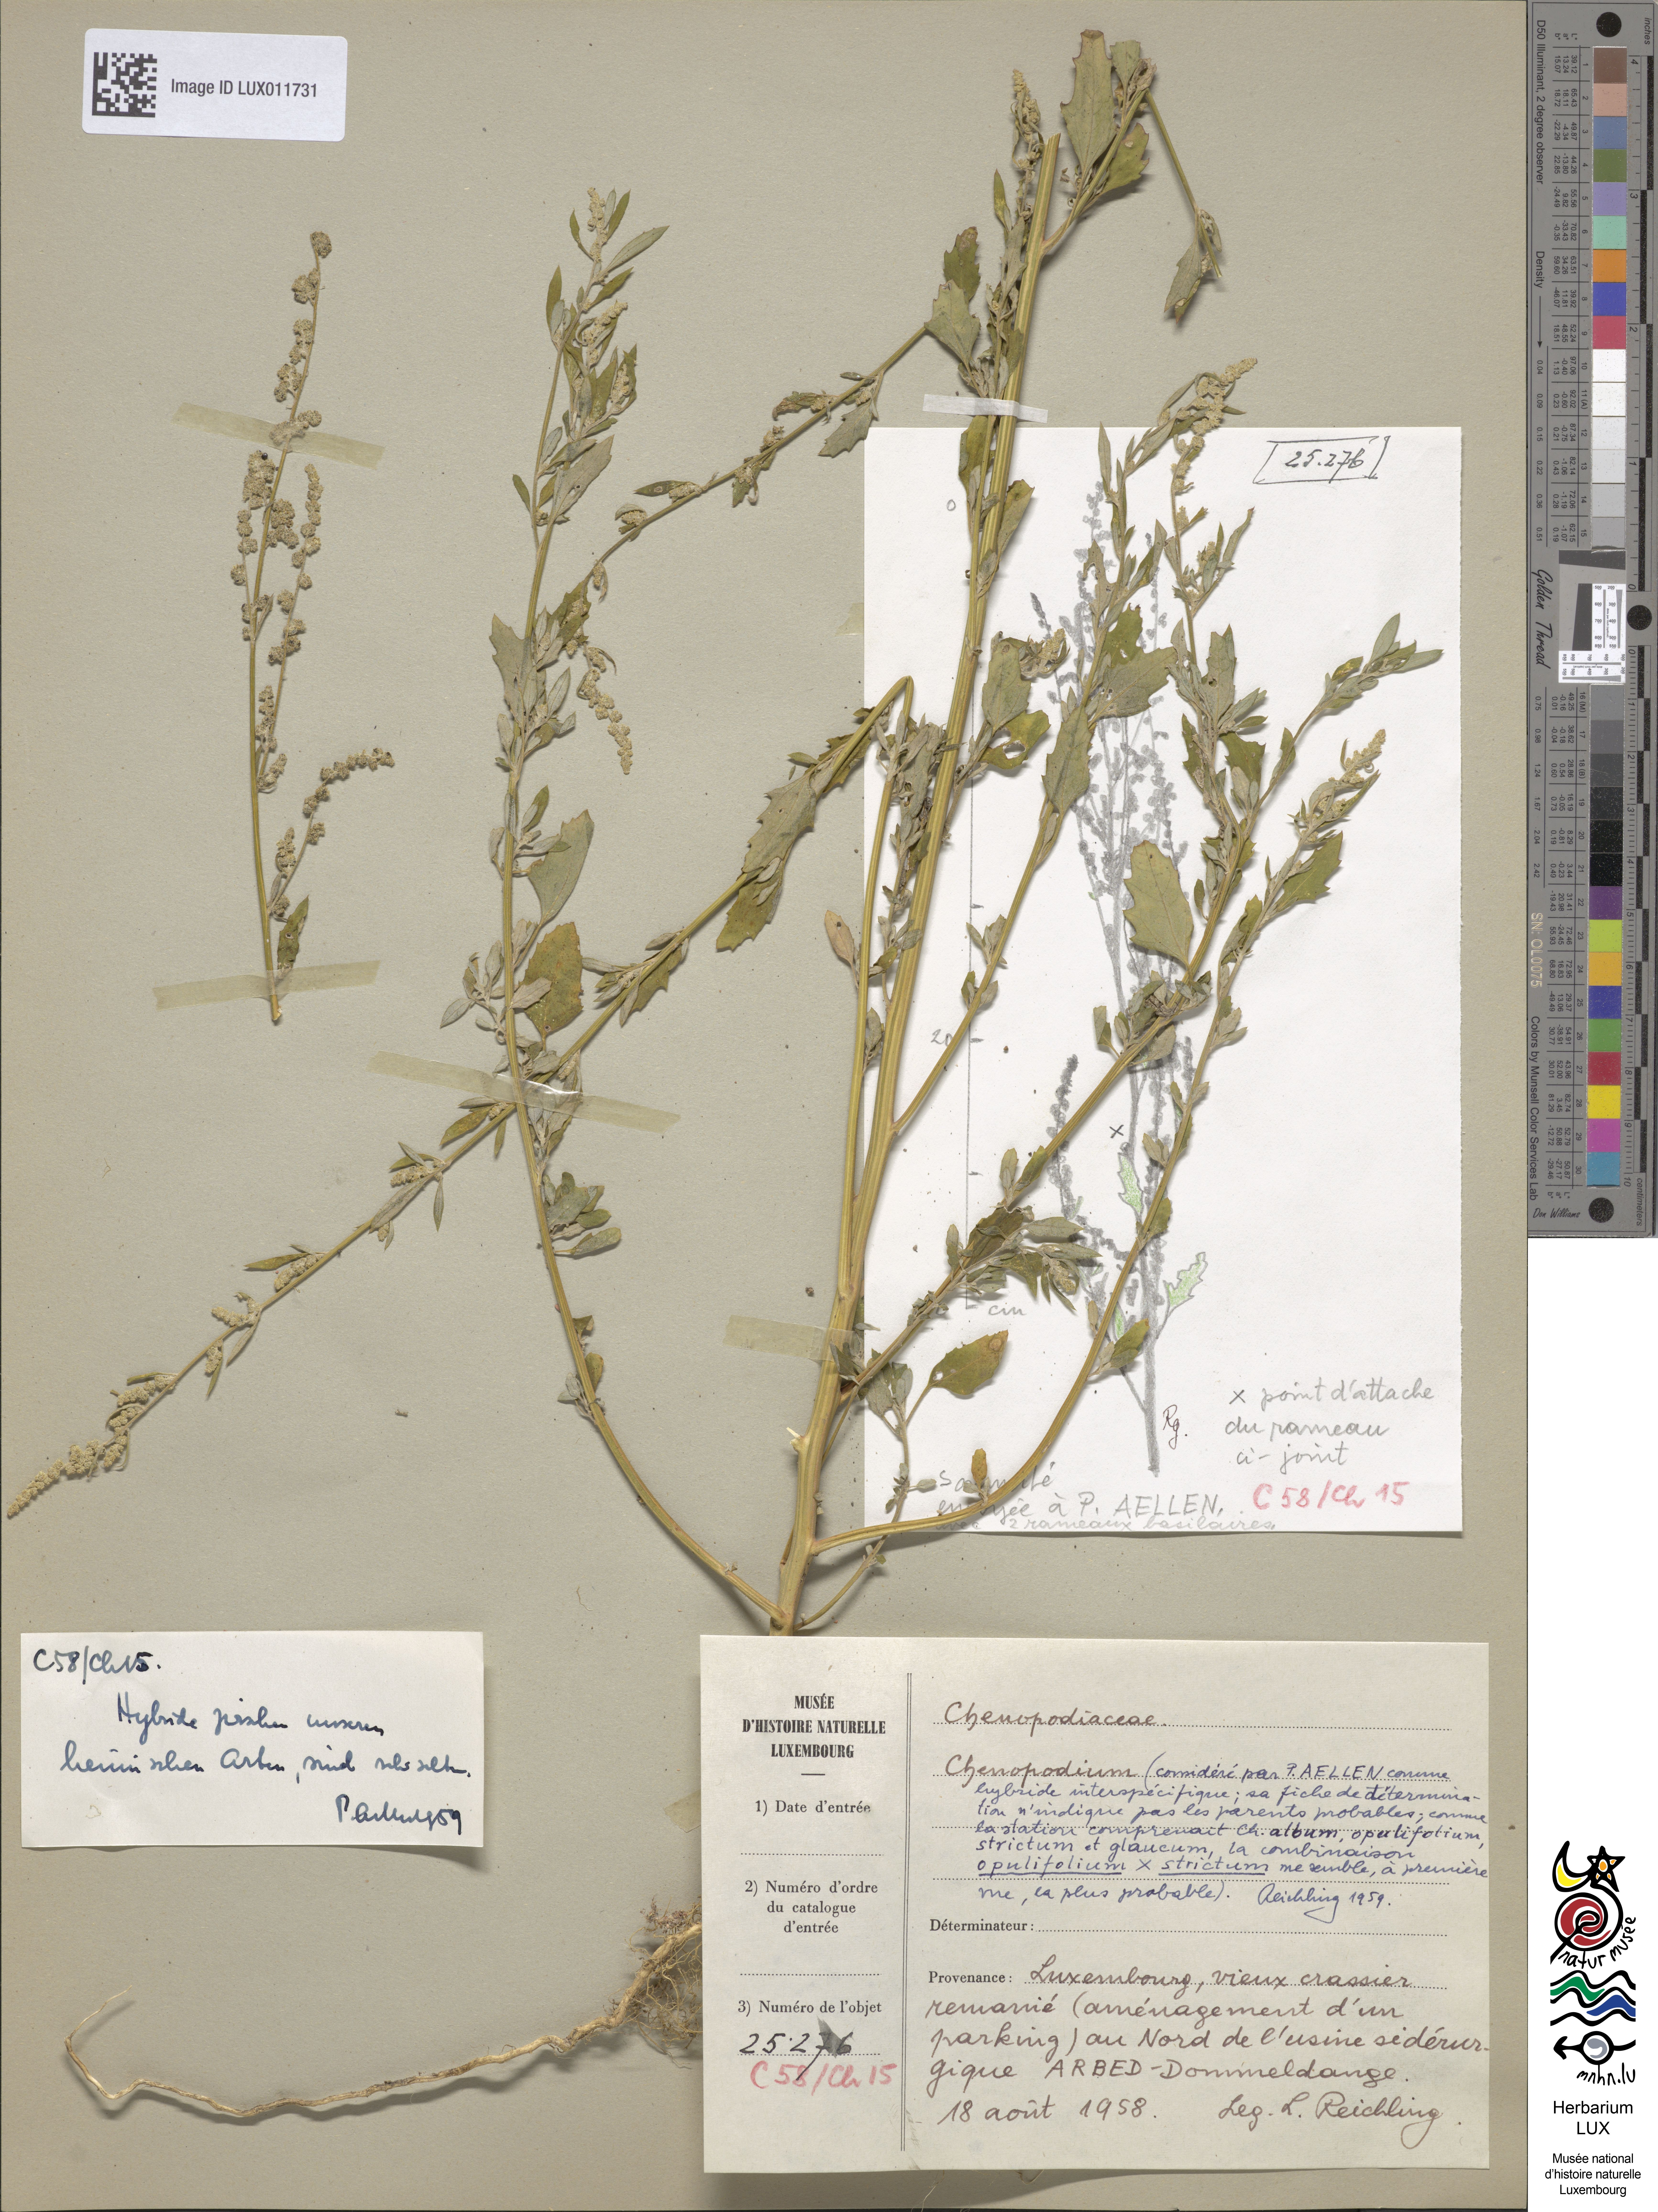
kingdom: Plantae
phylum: Tracheophyta
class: Magnoliopsida
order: Caryophyllales
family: Amaranthaceae
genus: Chenopodium
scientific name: Chenopodium
